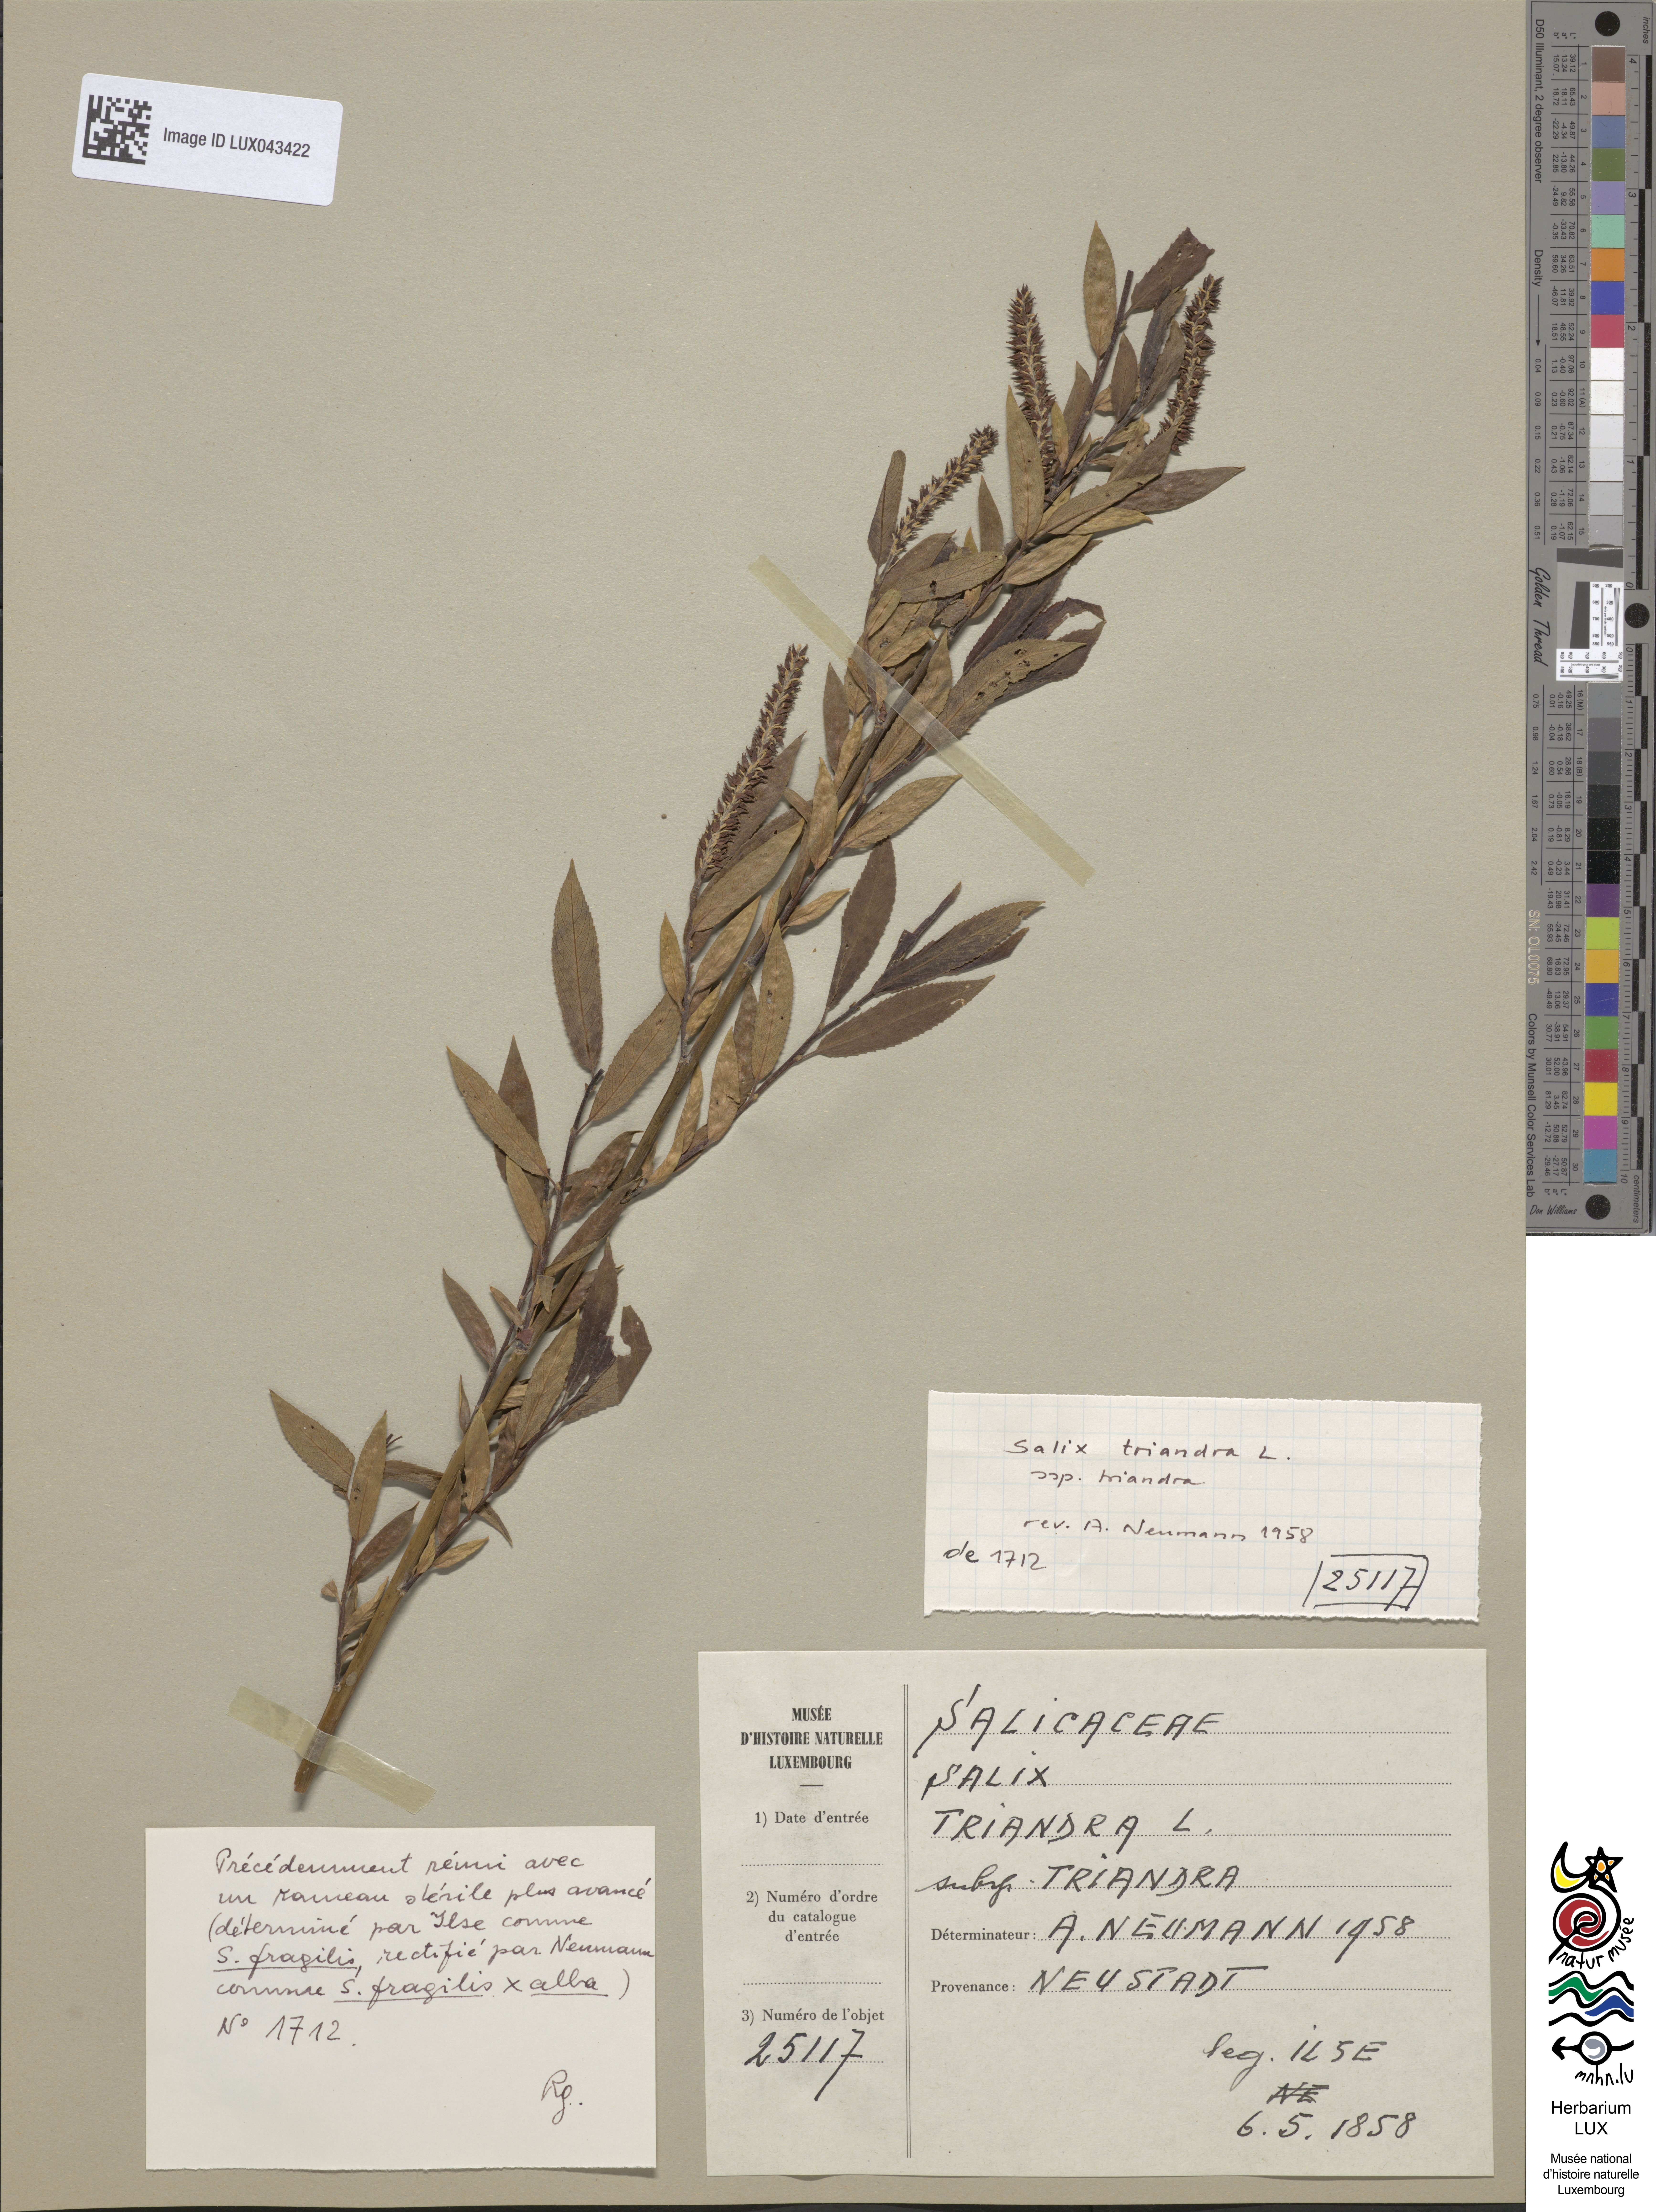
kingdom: Plantae
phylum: Tracheophyta
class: Magnoliopsida
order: Malpighiales
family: Salicaceae
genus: Salix
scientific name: Salix triandra
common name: Almond willow
